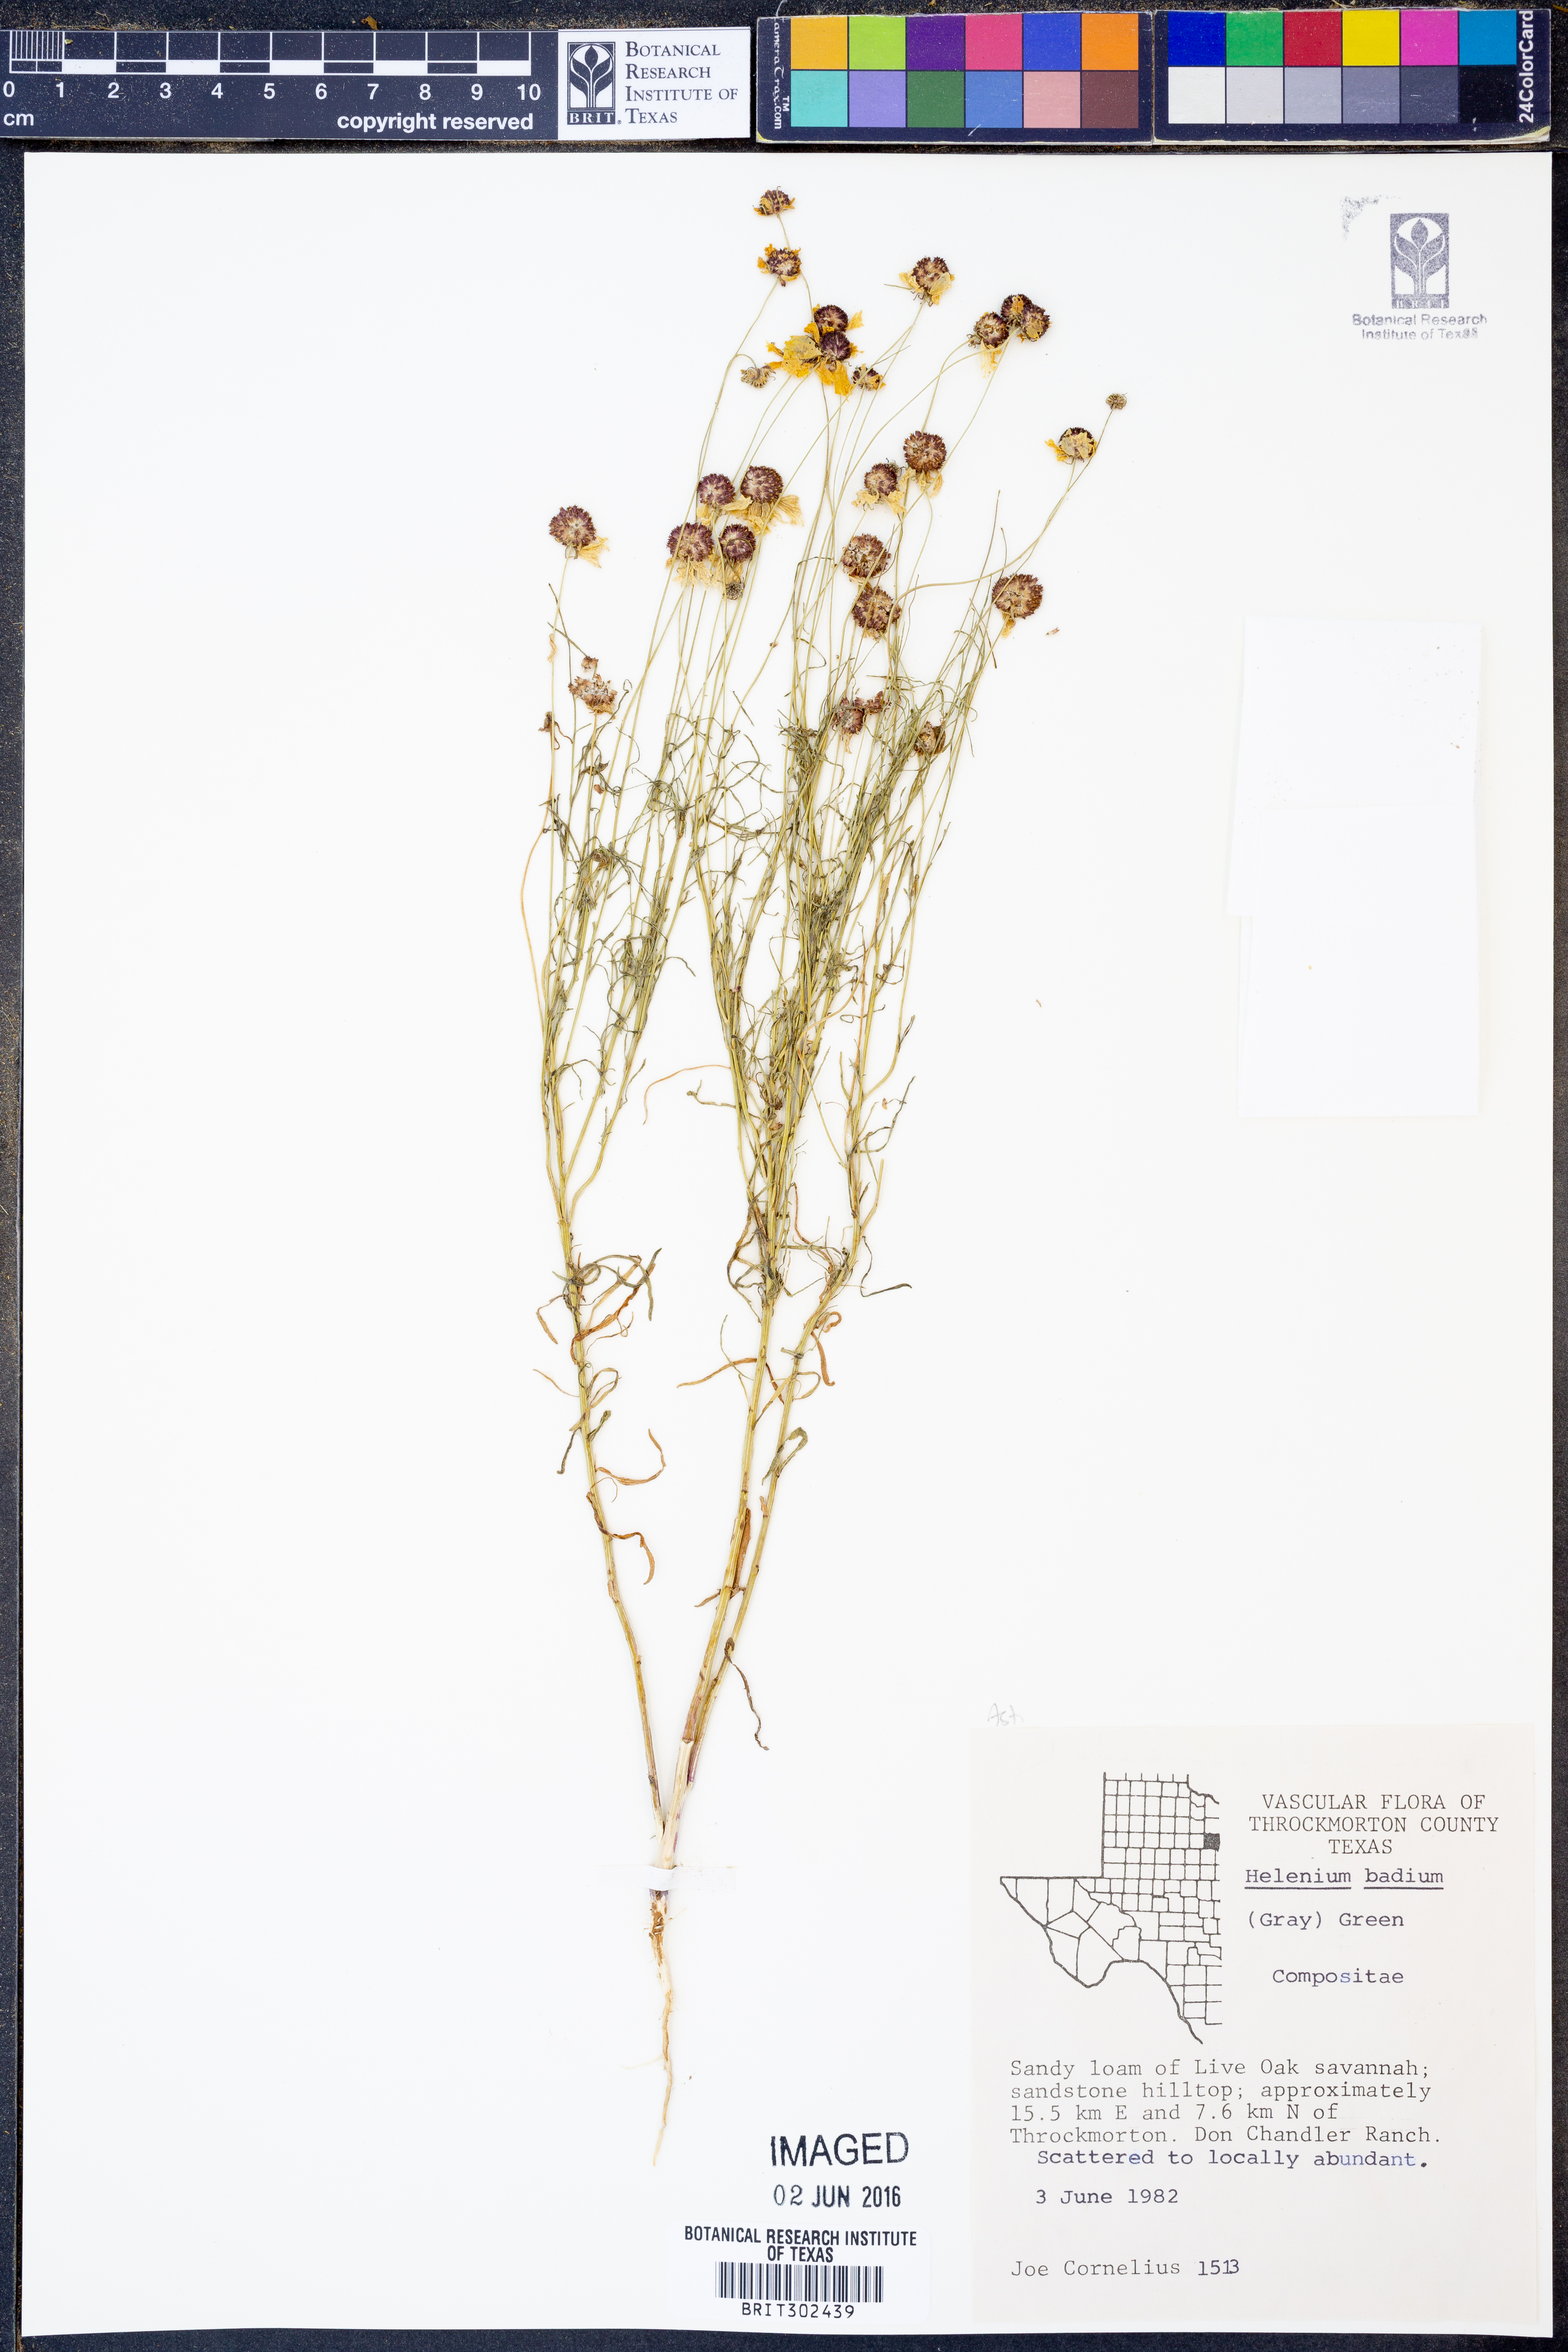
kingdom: Plantae
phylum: Tracheophyta
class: Magnoliopsida
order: Asterales
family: Asteraceae
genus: Helenium
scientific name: Helenium amarum
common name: Bitter sneezeweed
